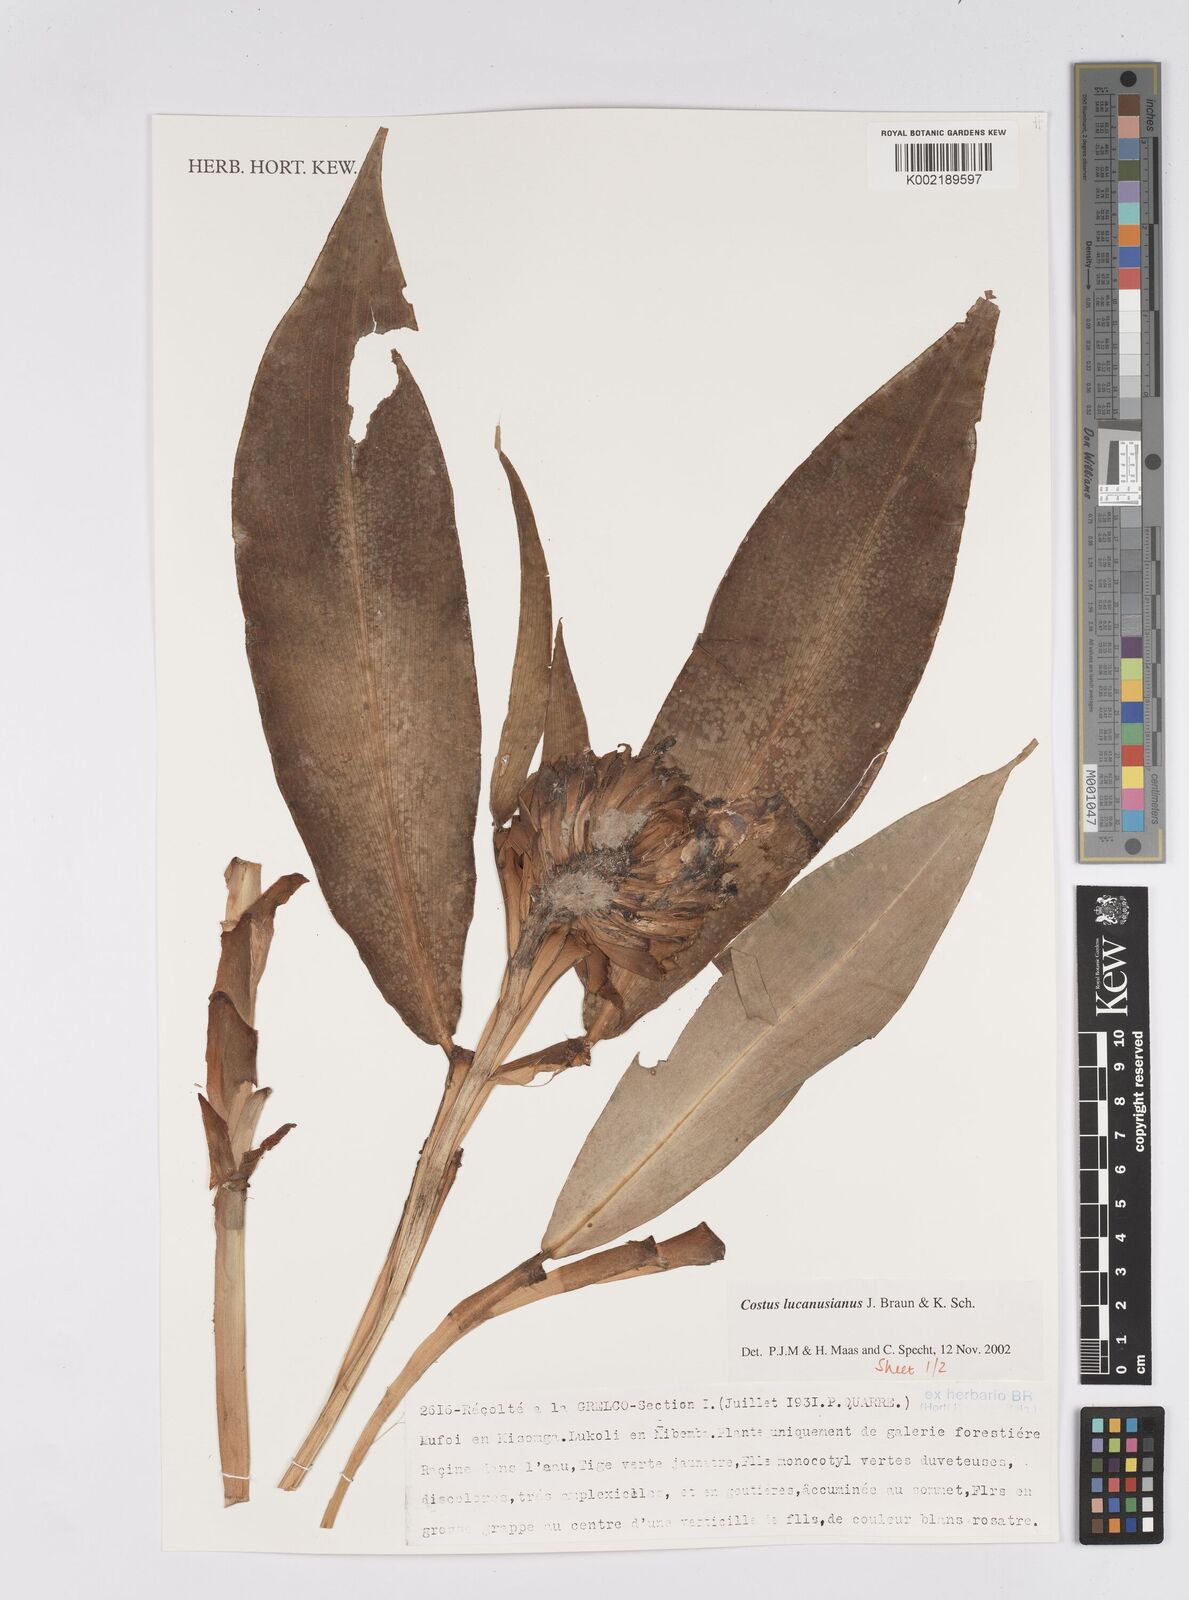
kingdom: Plantae
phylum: Tracheophyta
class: Liliopsida
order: Zingiberales
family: Costaceae
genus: Costus
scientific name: Costus lucanusianus
